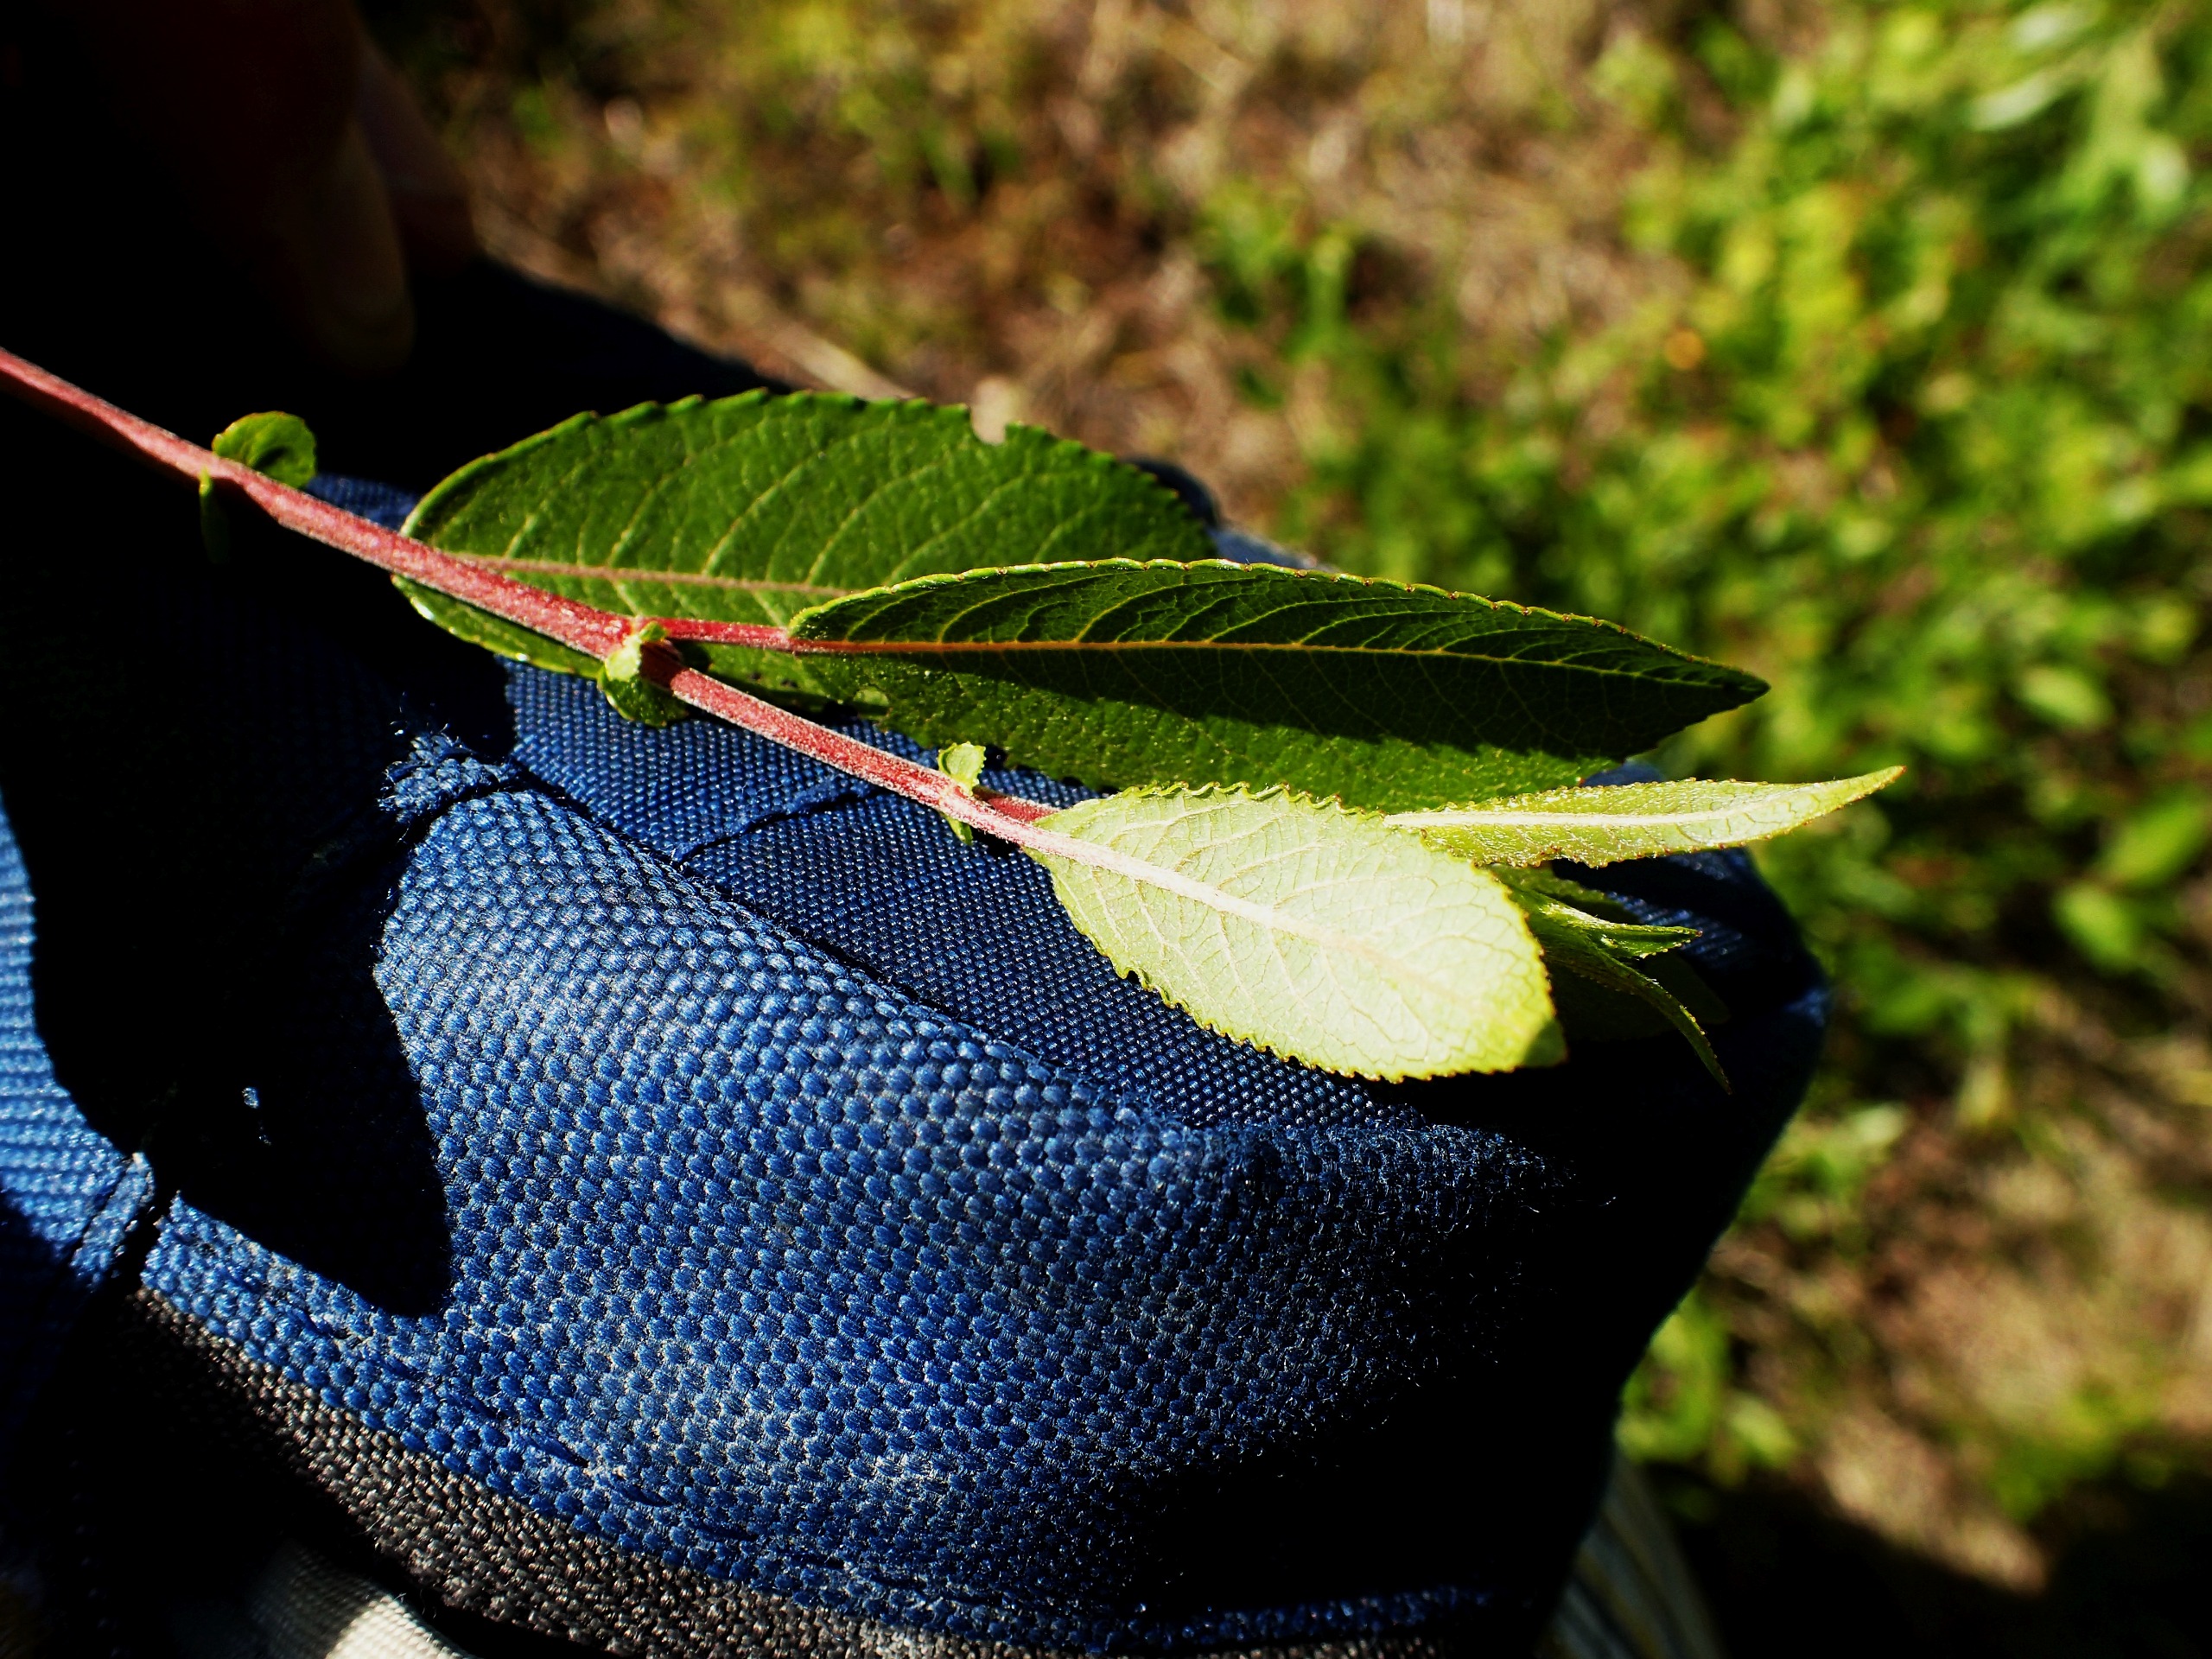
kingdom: Plantae
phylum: Tracheophyta
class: Magnoliopsida
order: Malpighiales
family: Salicaceae
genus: Salix
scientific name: Salix myrsinifolia
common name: Sort pil
